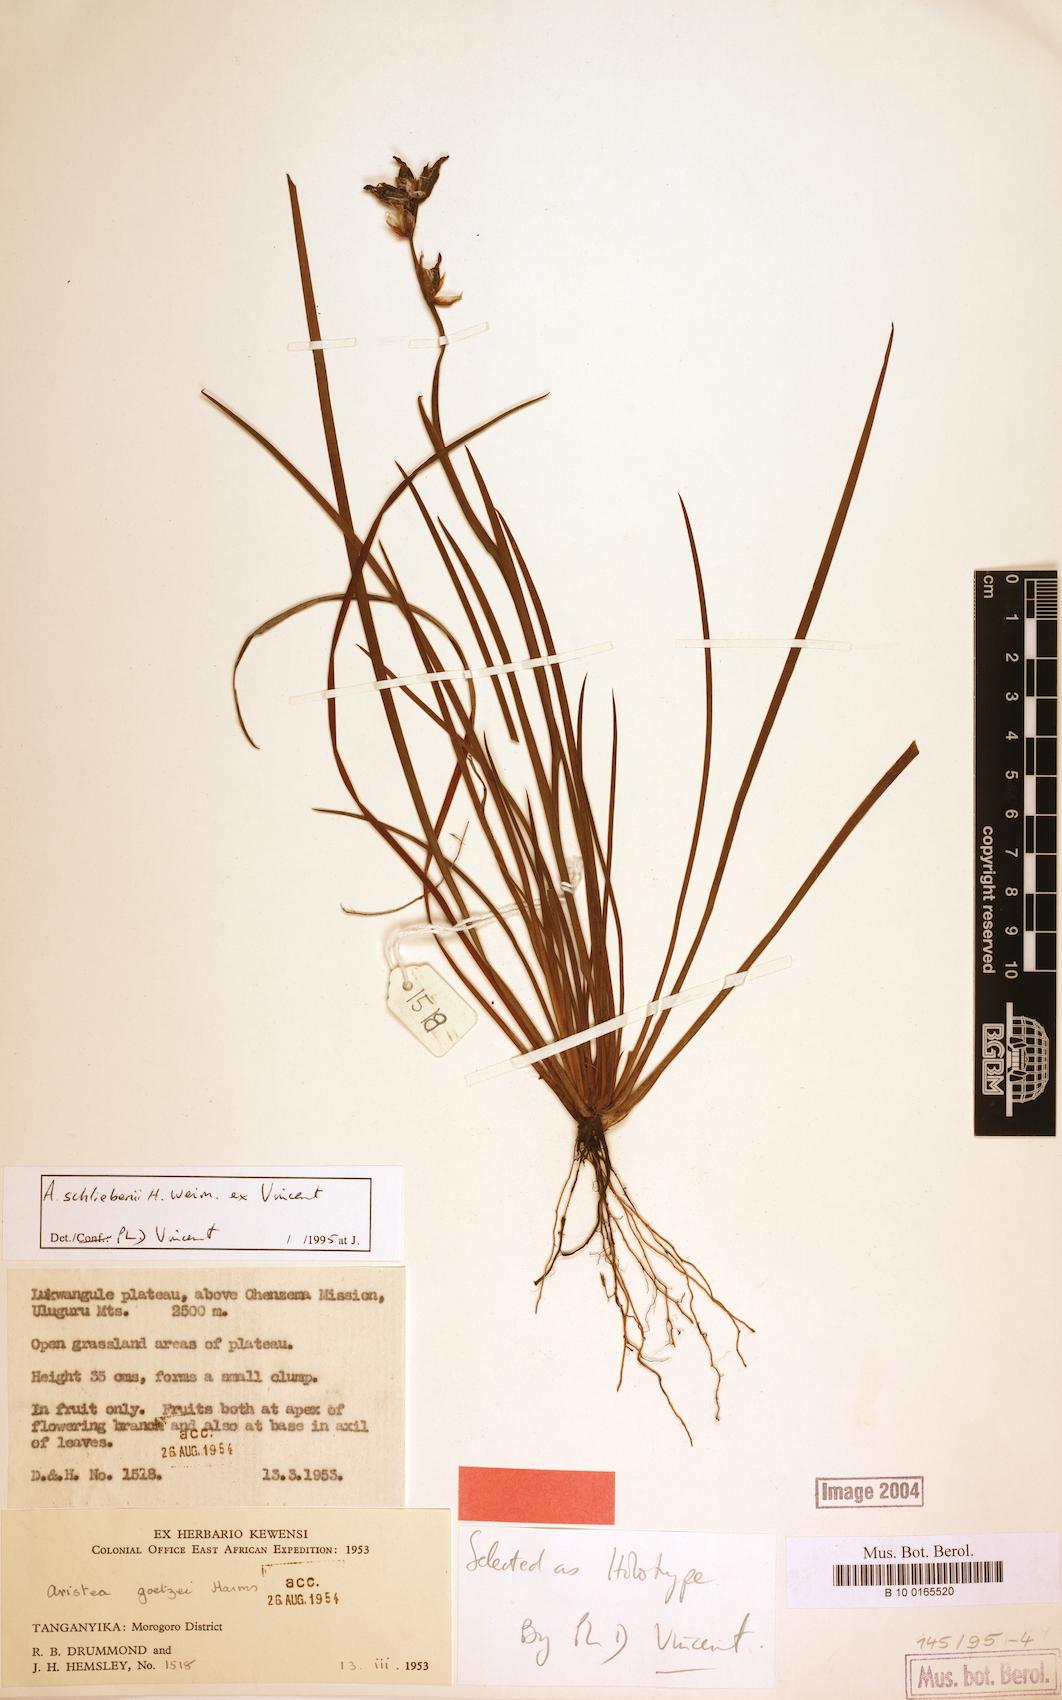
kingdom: Plantae
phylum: Tracheophyta
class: Liliopsida
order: Asparagales
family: Iridaceae
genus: Aristea
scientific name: Aristea
